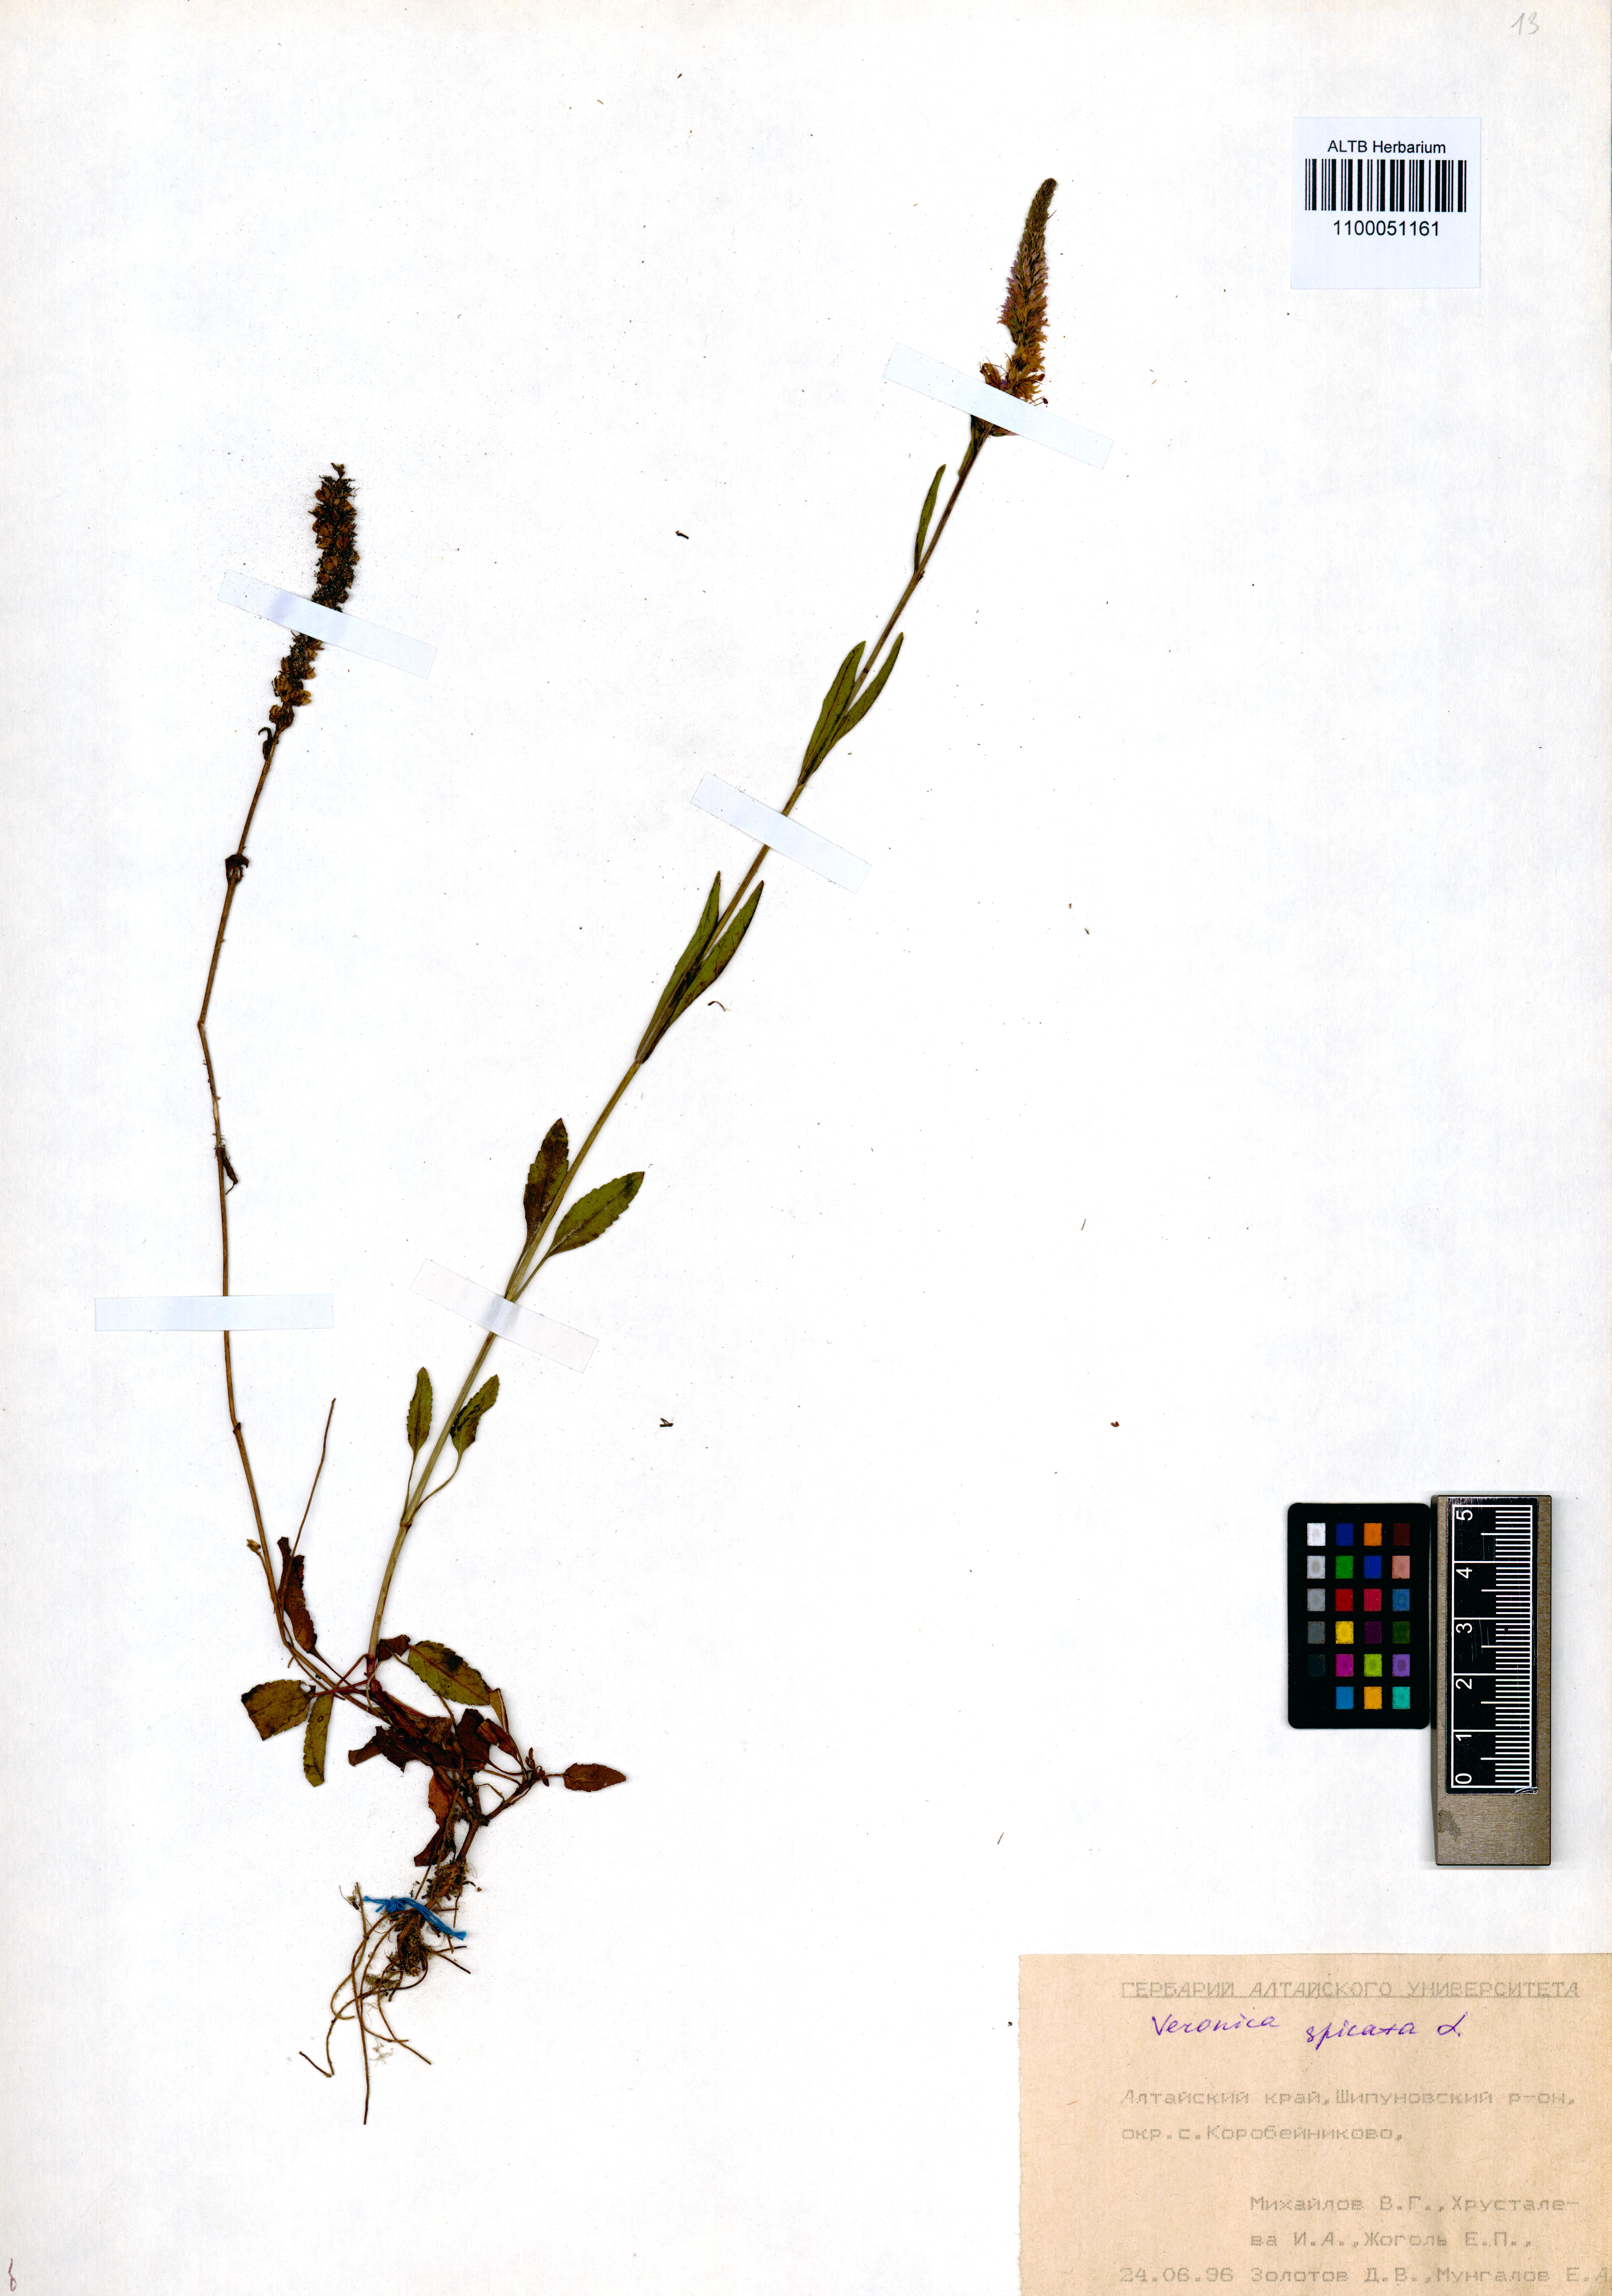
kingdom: Plantae
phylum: Tracheophyta
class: Magnoliopsida
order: Lamiales
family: Plantaginaceae
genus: Veronica
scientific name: Veronica spicata
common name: Spiked speedwell
